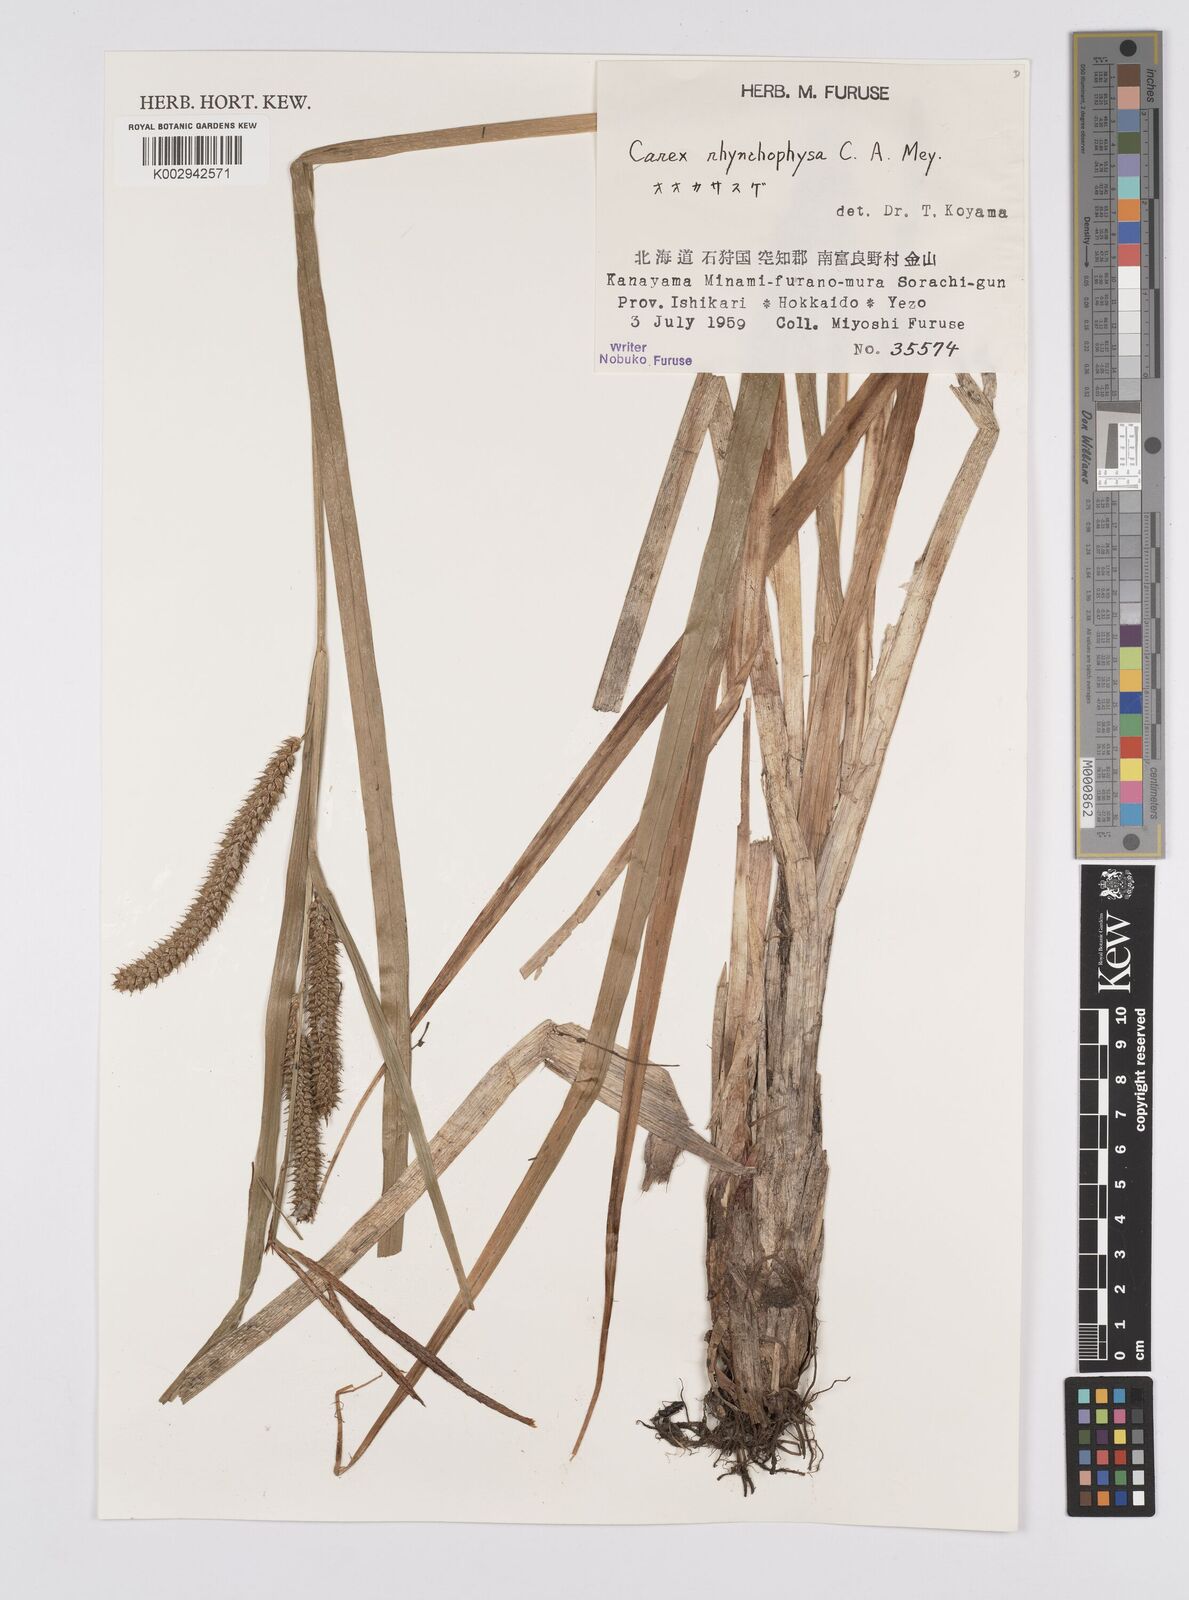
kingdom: Plantae
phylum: Tracheophyta
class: Liliopsida
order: Poales
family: Cyperaceae
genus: Carex
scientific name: Carex utriculata
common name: Beaked sedge
